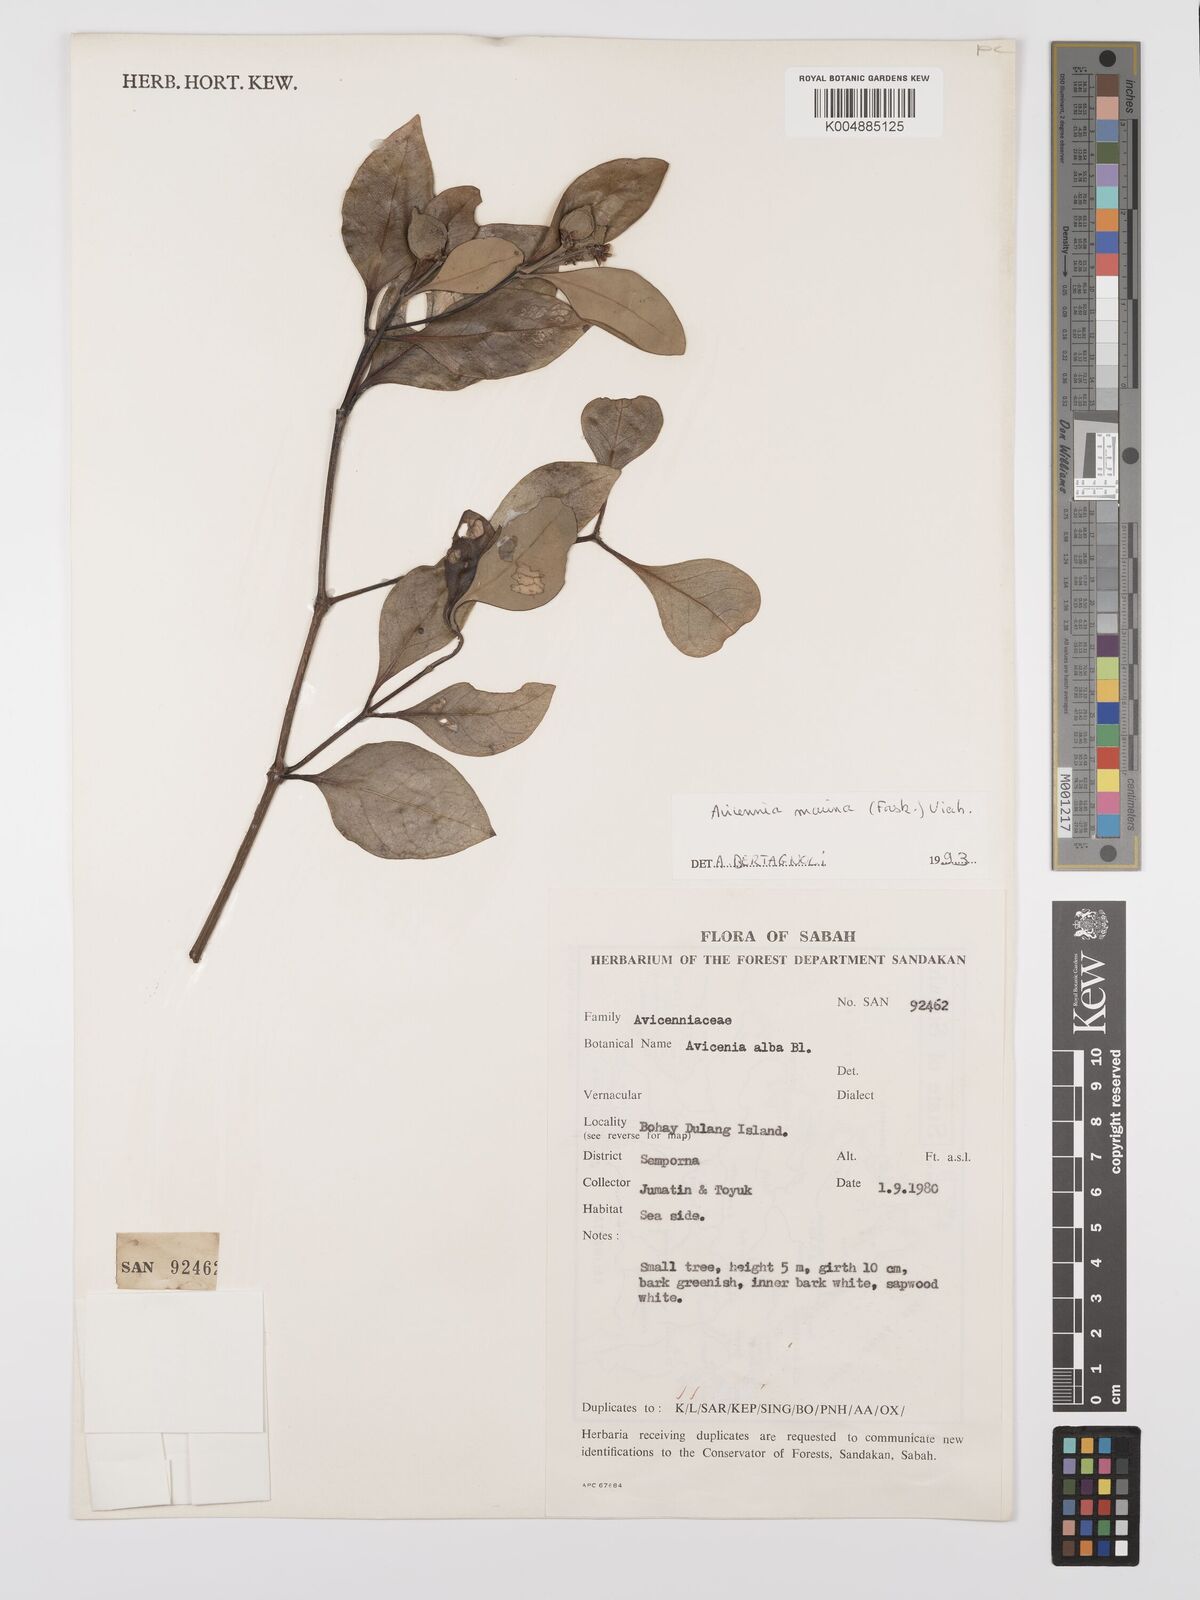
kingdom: Plantae
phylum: Tracheophyta
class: Magnoliopsida
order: Lamiales
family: Acanthaceae
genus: Avicennia
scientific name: Avicennia marina
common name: Gray mangrove
